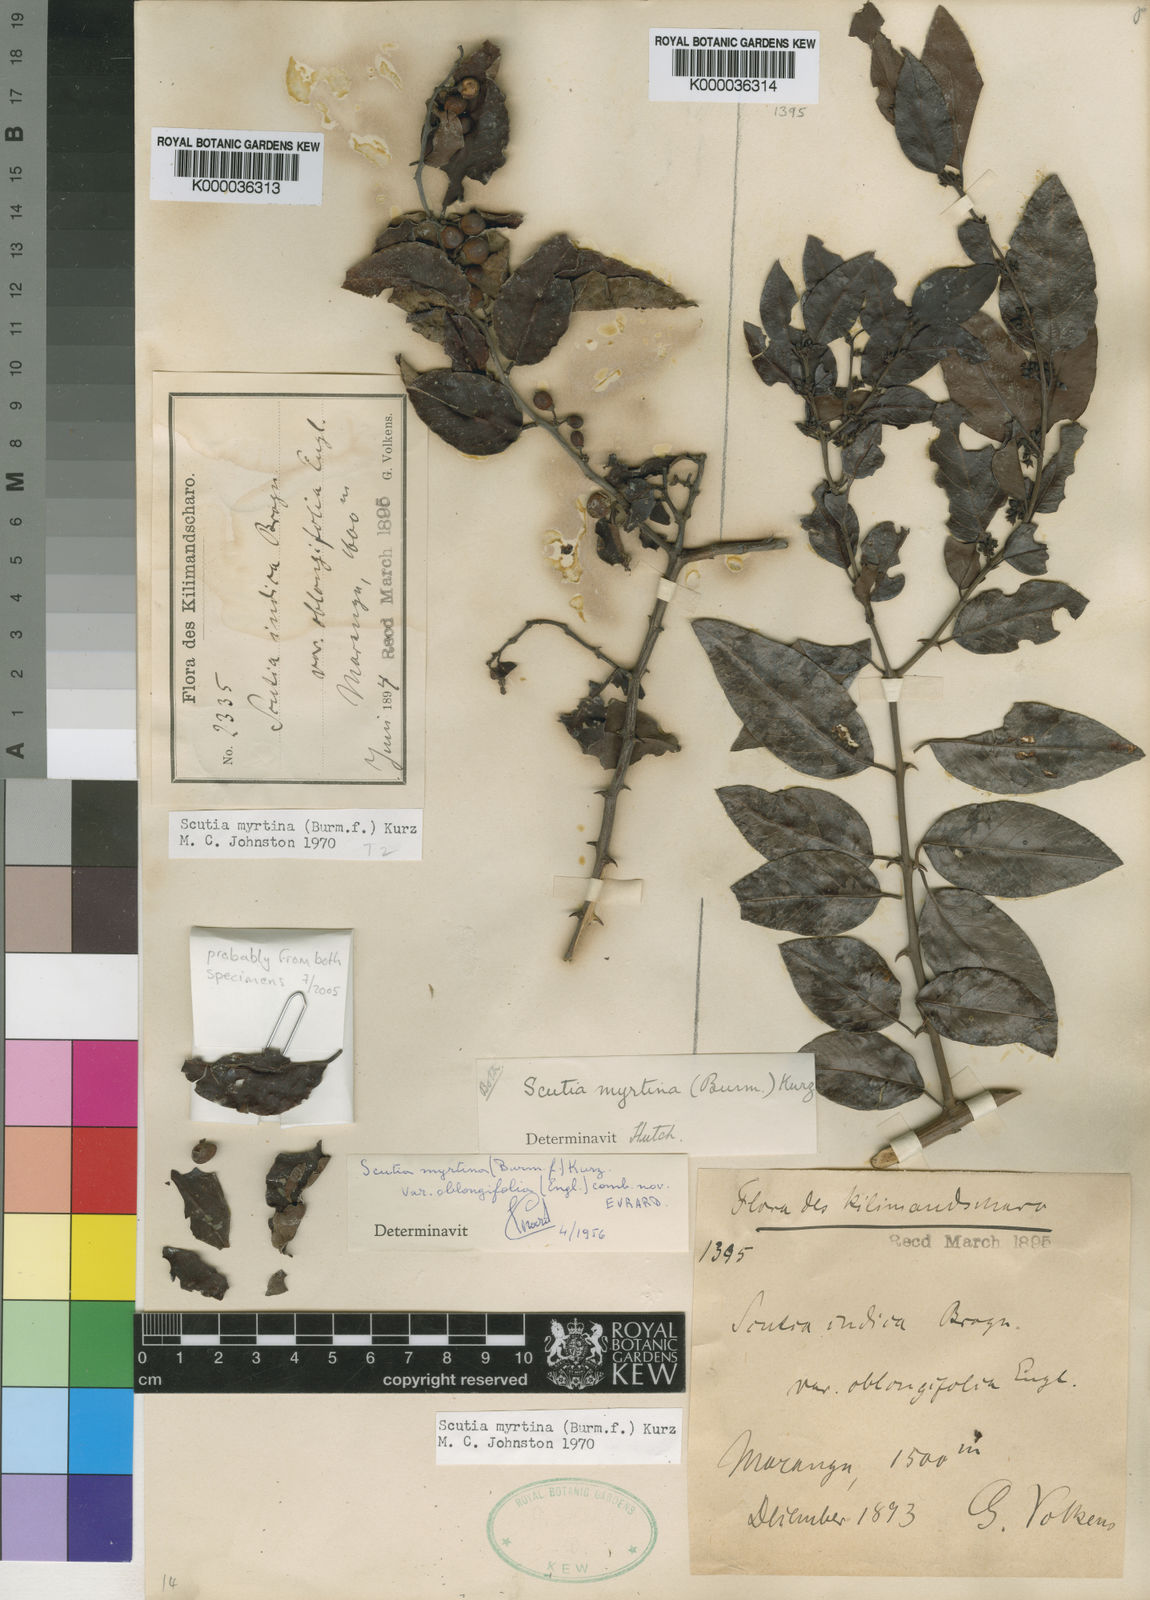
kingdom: Plantae
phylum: Tracheophyta
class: Magnoliopsida
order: Rosales
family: Rhamnaceae
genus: Scutia
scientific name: Scutia myrtina
